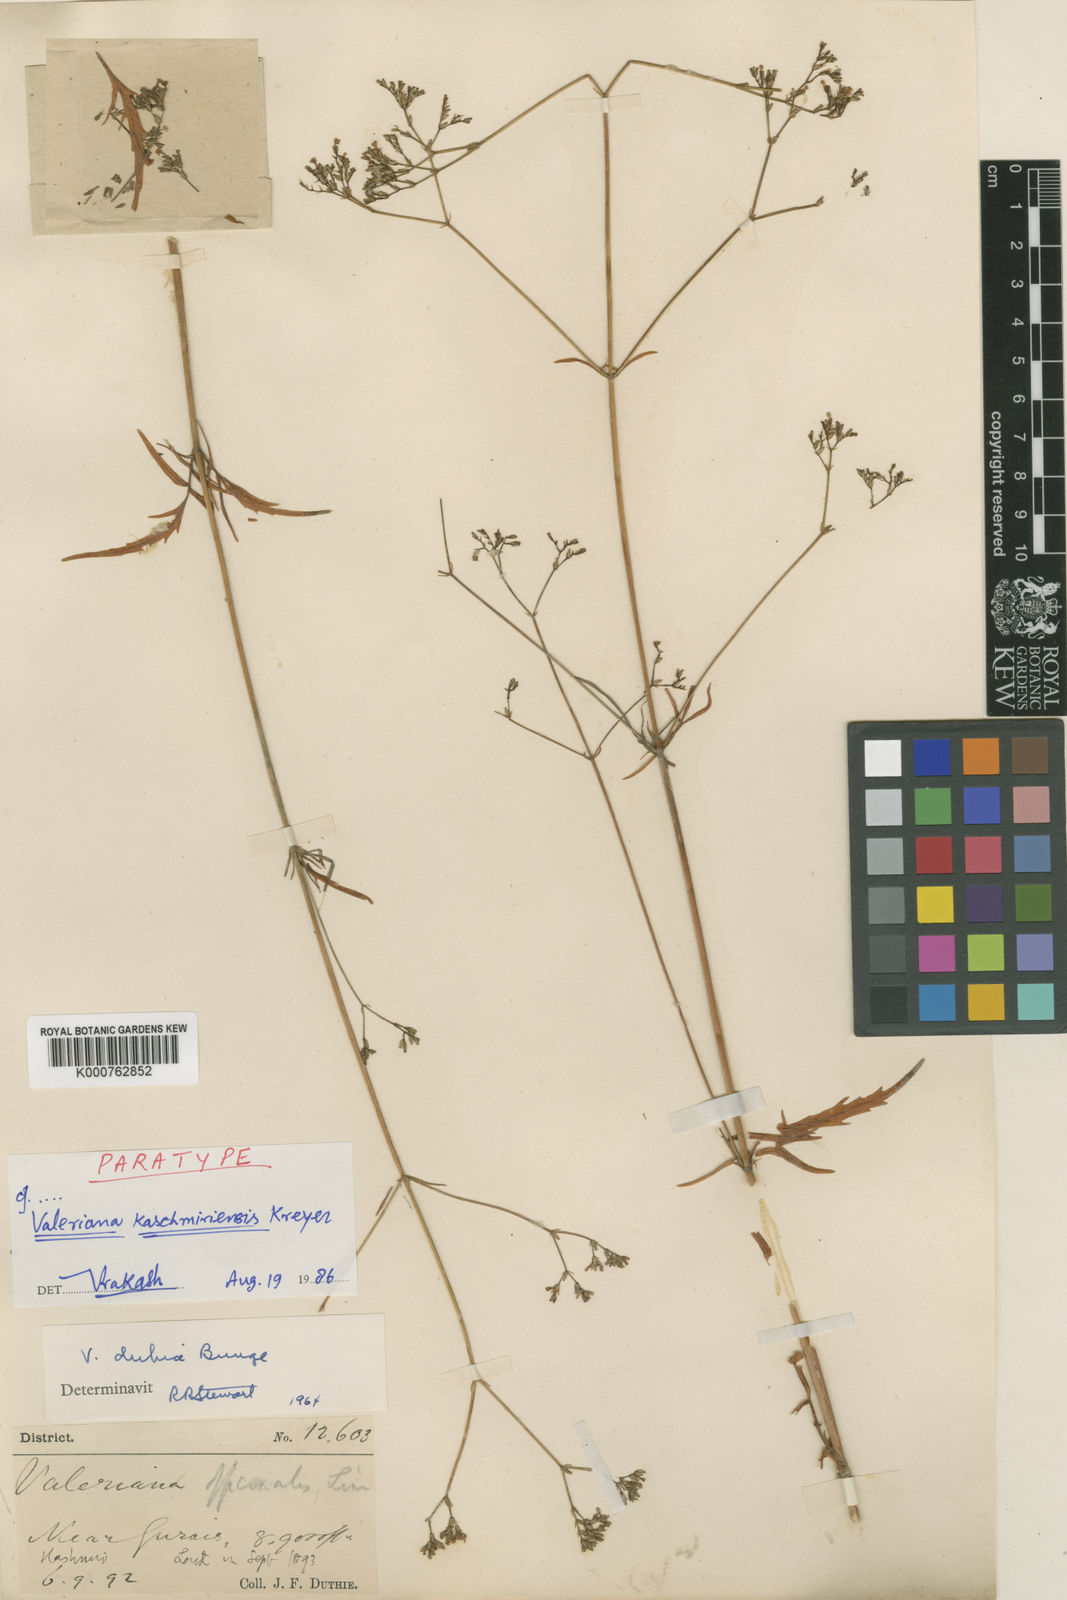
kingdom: Plantae
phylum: Tracheophyta
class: Magnoliopsida
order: Dipsacales
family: Caprifoliaceae
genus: Valeriana
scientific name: Valeriana officinalis
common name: Common valerian
